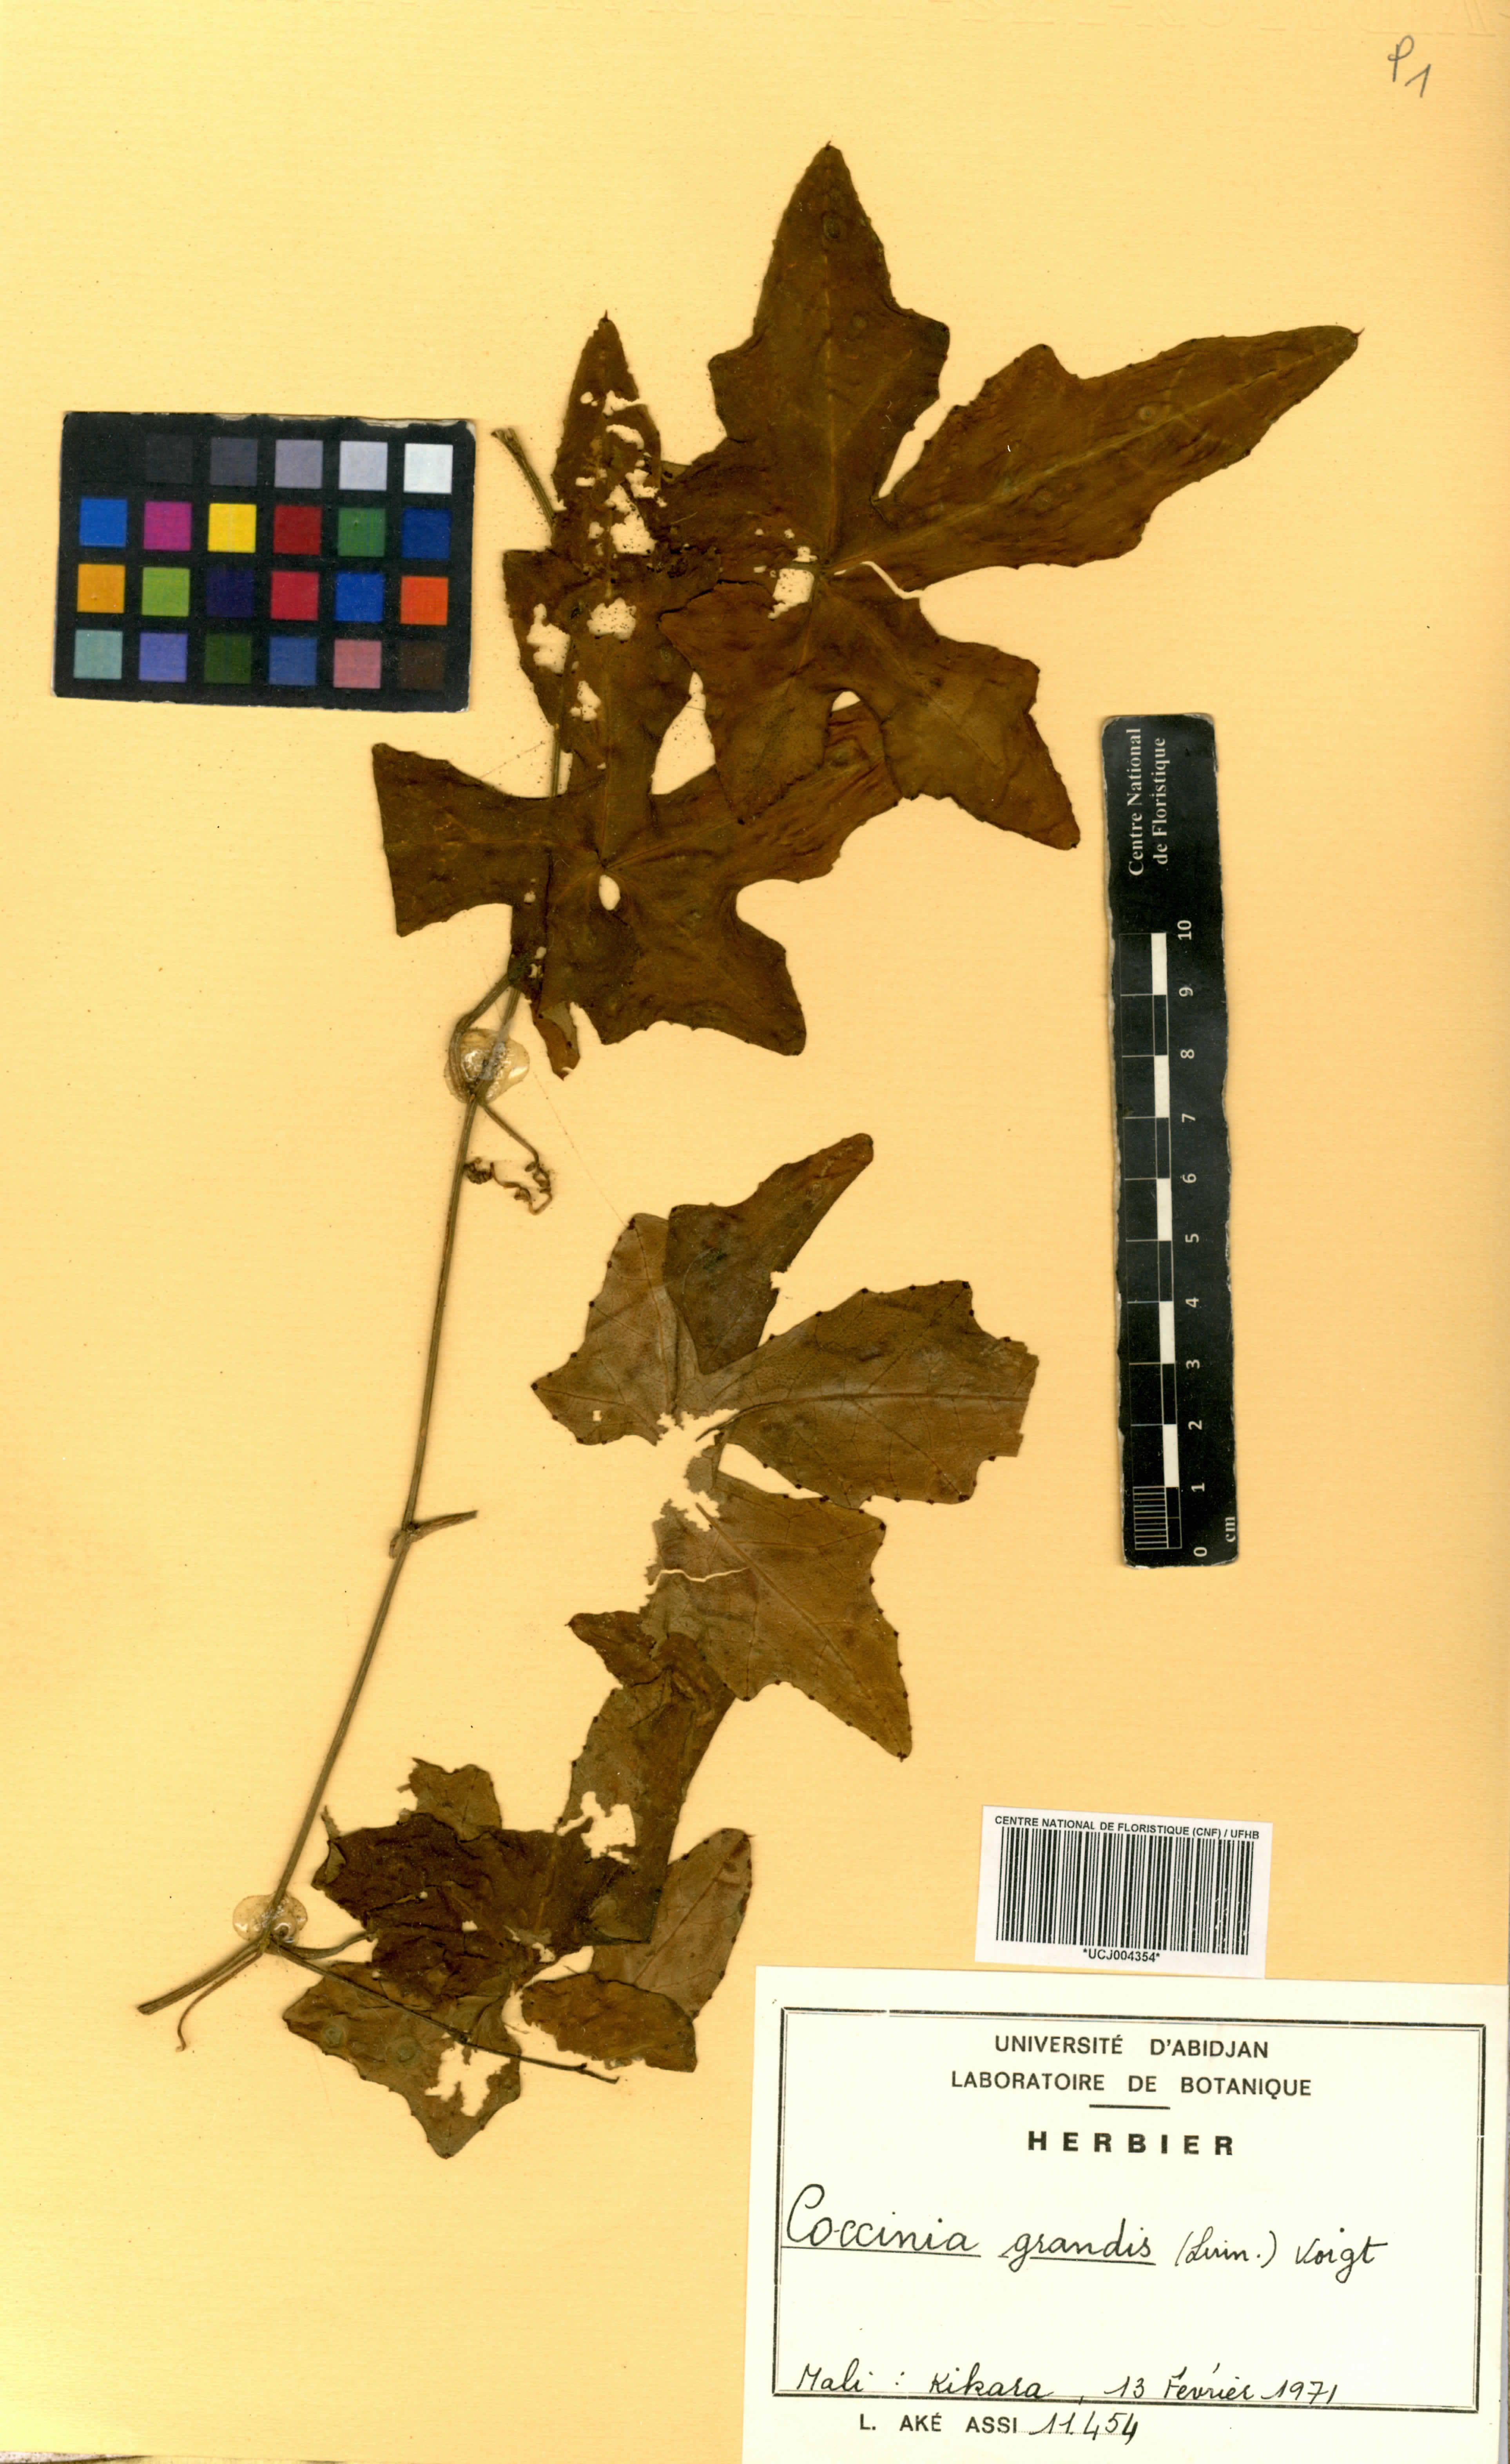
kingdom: Plantae
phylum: Tracheophyta
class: Magnoliopsida
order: Cucurbitales
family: Cucurbitaceae
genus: Coccinia
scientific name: Coccinia grandis
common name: Ivy gourd
